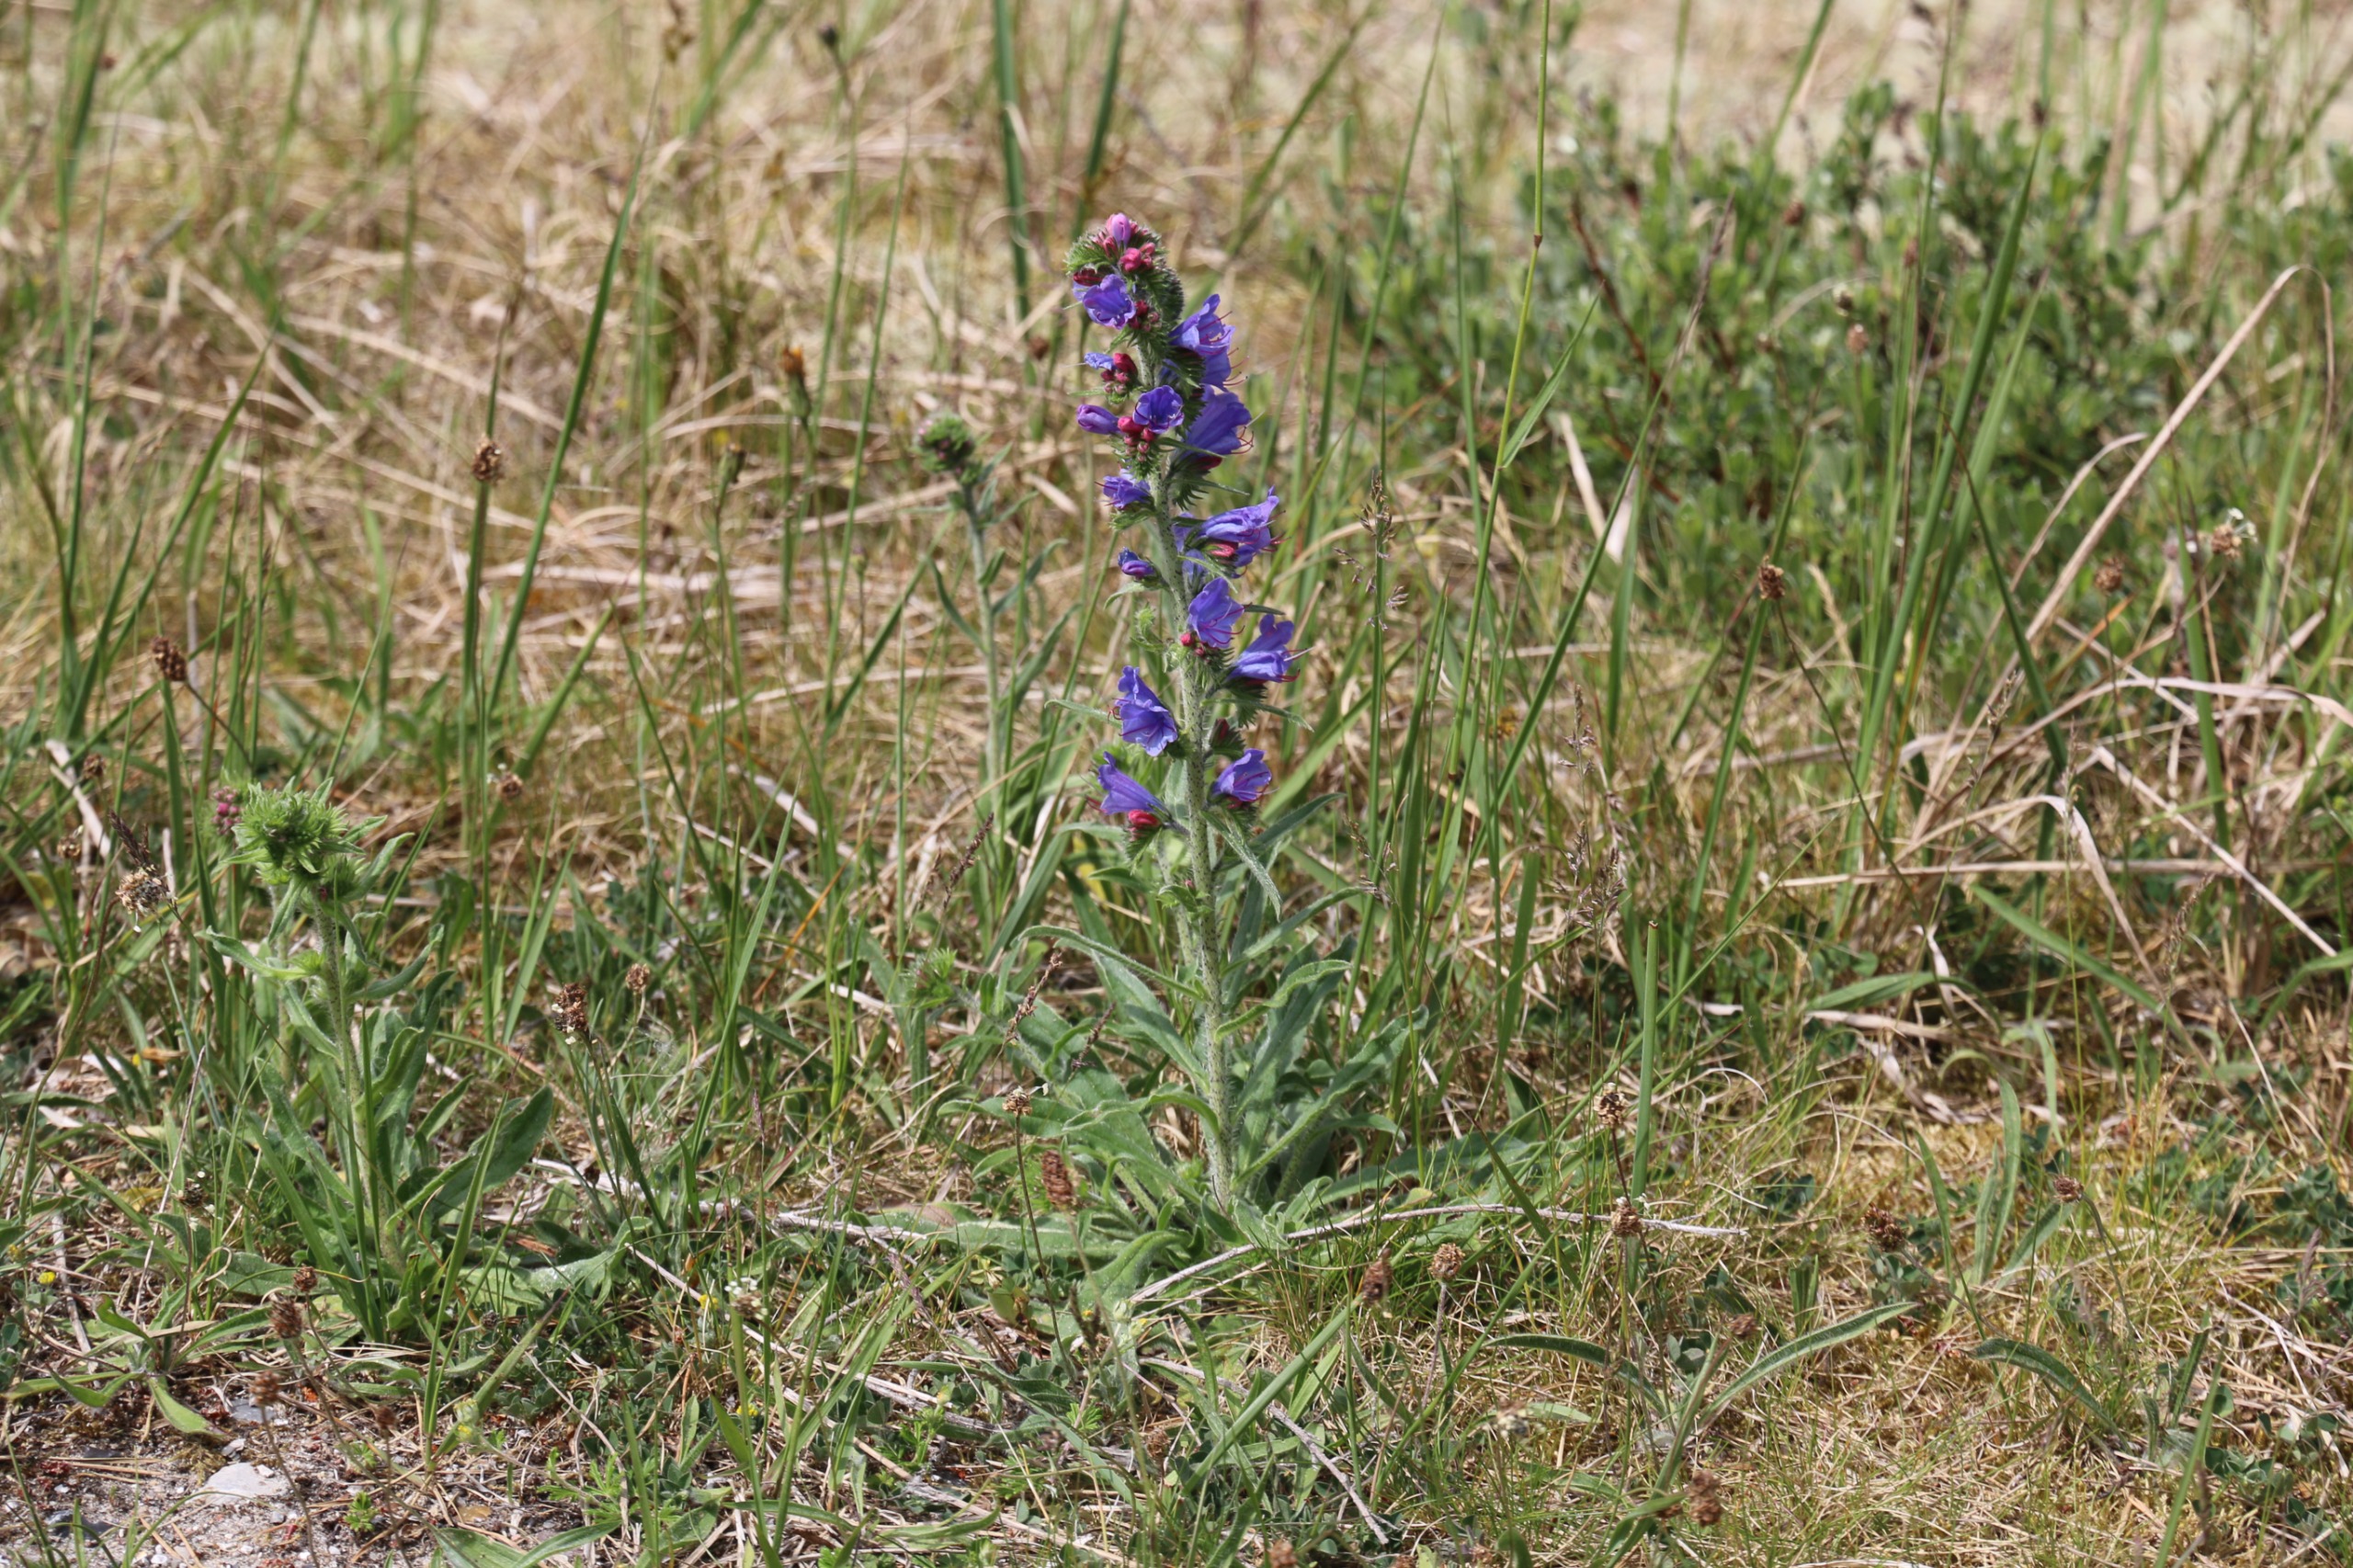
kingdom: Plantae
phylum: Tracheophyta
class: Magnoliopsida
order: Boraginales
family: Boraginaceae
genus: Echium
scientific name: Echium vulgare
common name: Slangehoved
